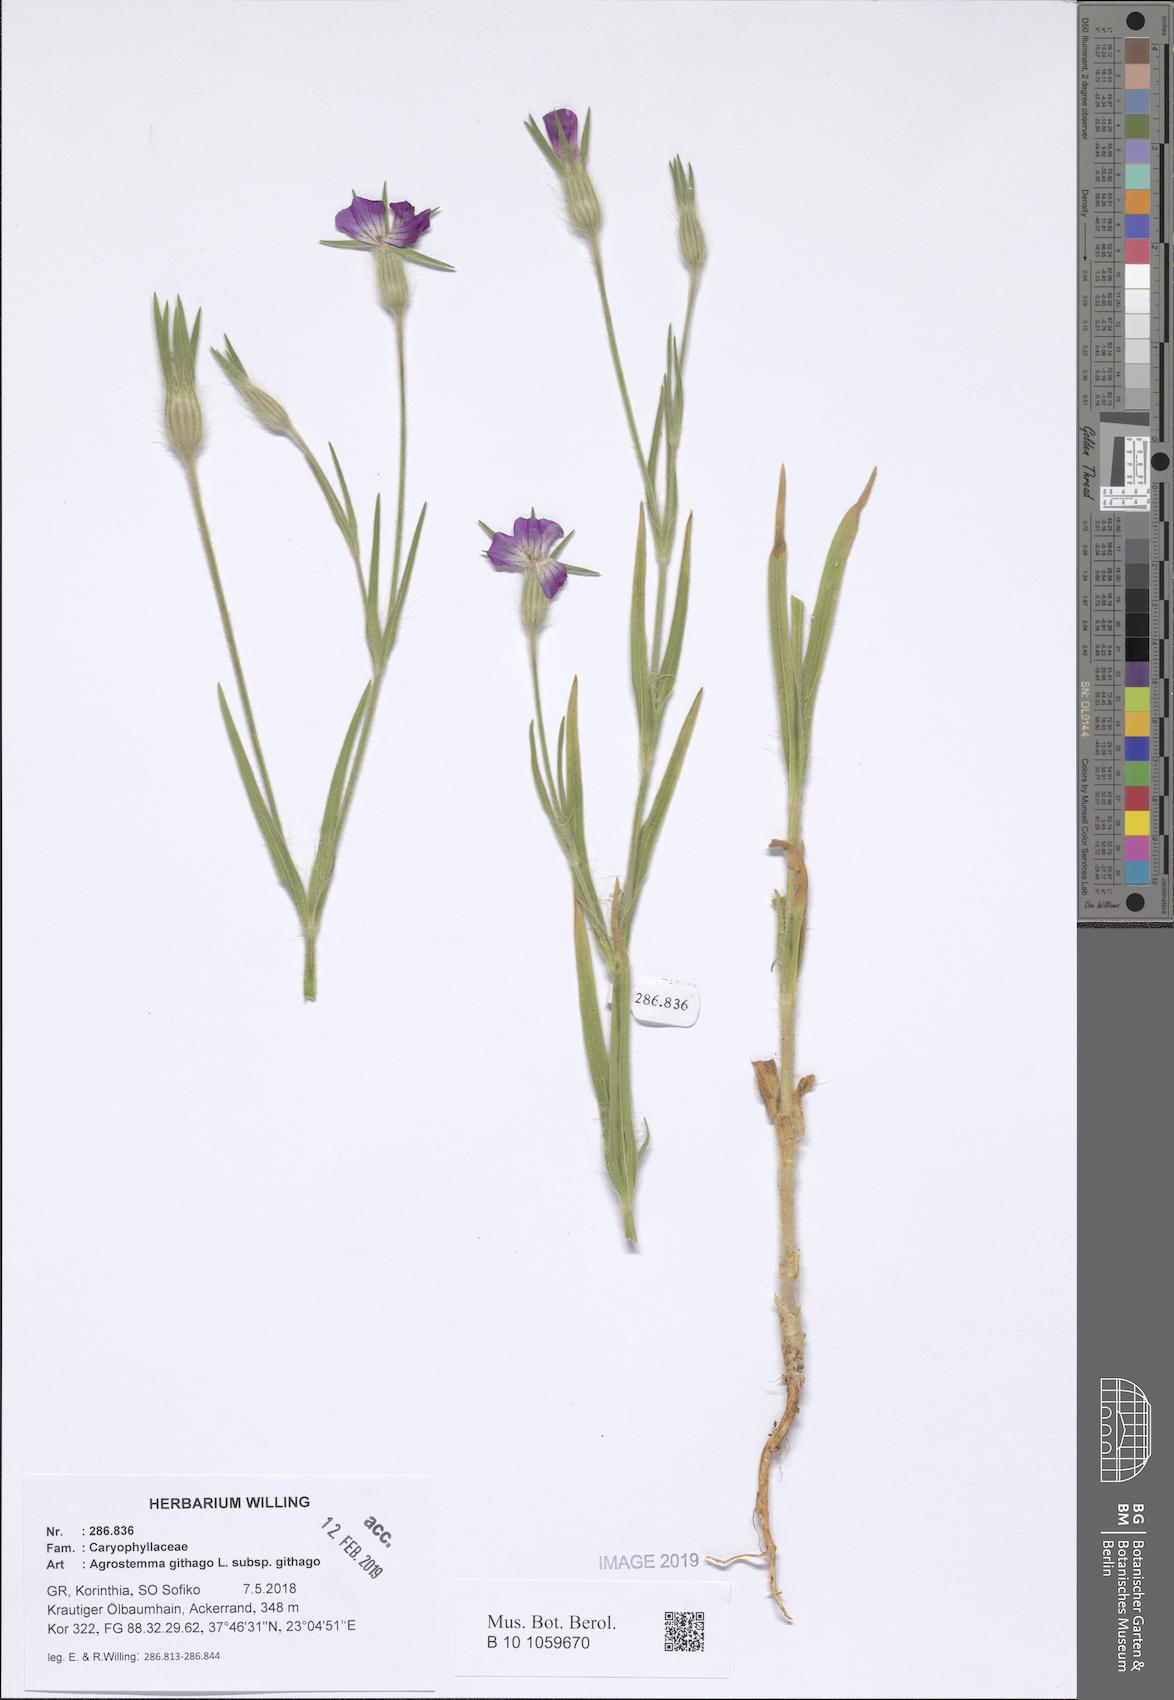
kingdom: Plantae
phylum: Tracheophyta
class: Magnoliopsida
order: Caryophyllales
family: Caryophyllaceae
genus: Agrostemma
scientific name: Agrostemma githago
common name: Common corncockle
